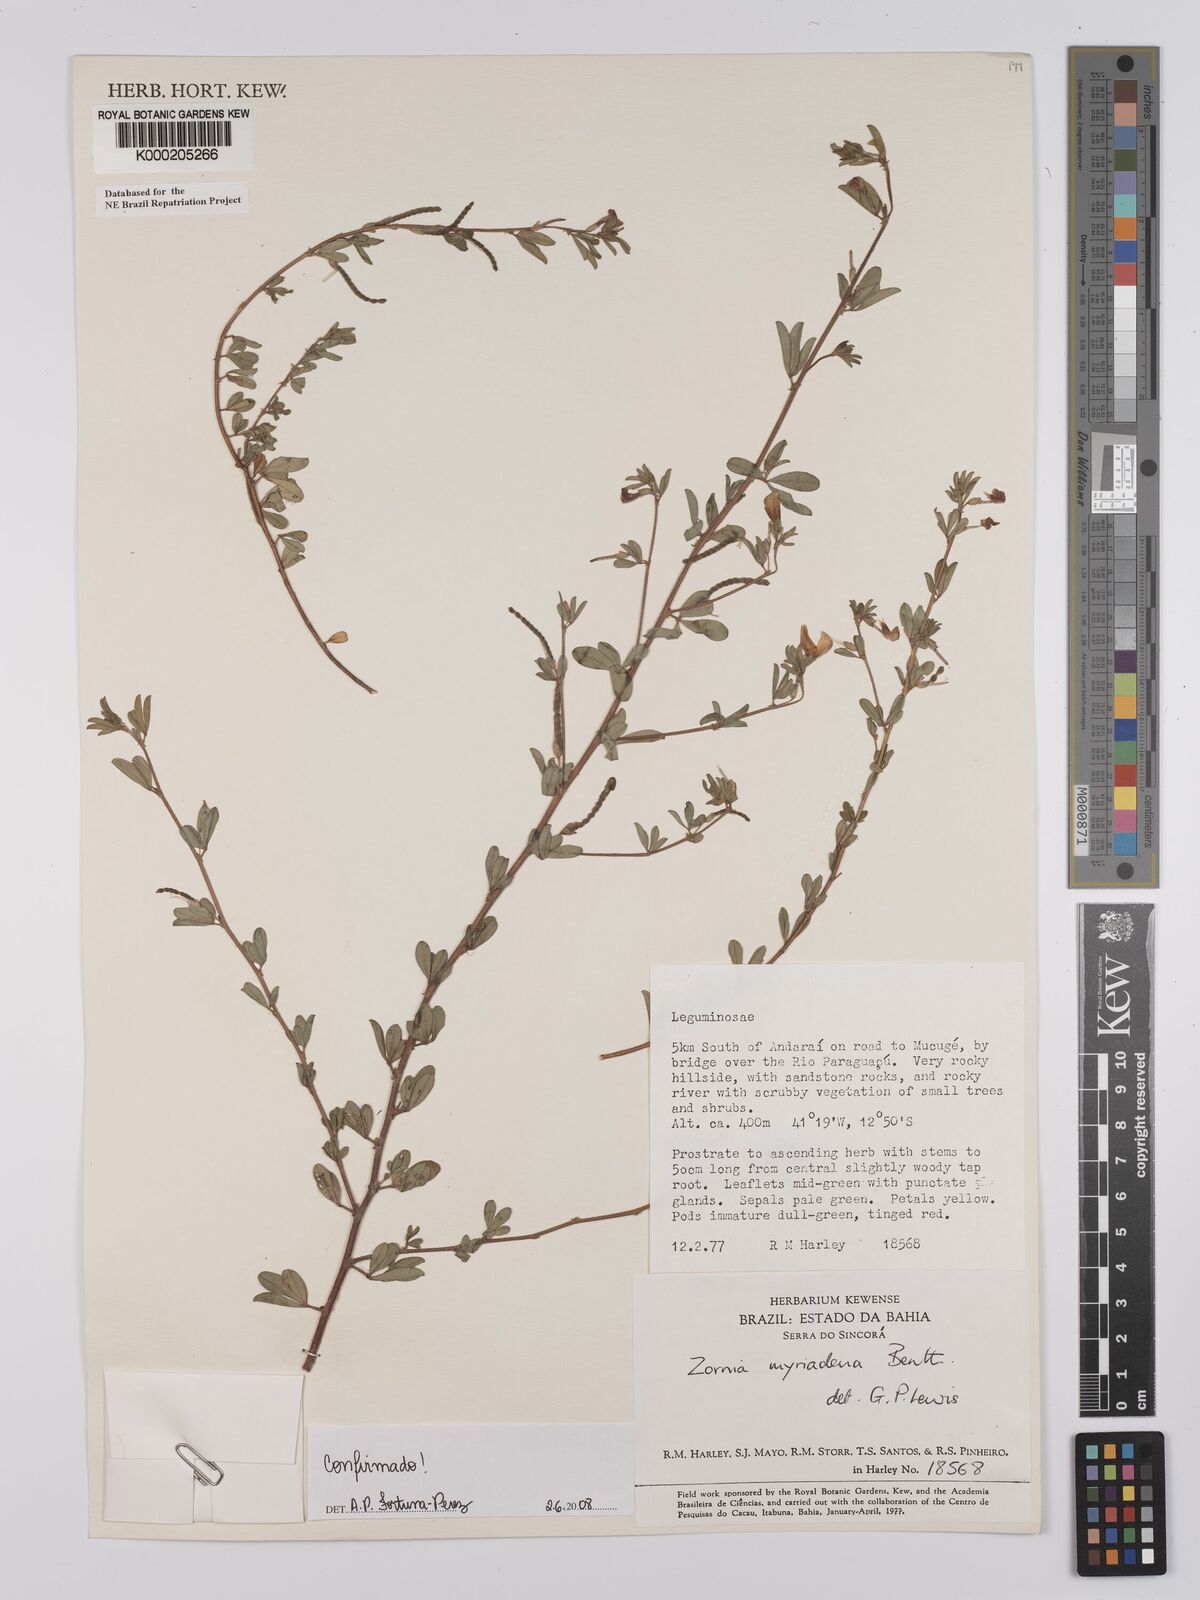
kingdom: Plantae
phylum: Tracheophyta
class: Magnoliopsida
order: Fabales
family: Fabaceae
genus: Zornia
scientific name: Zornia myriadena
